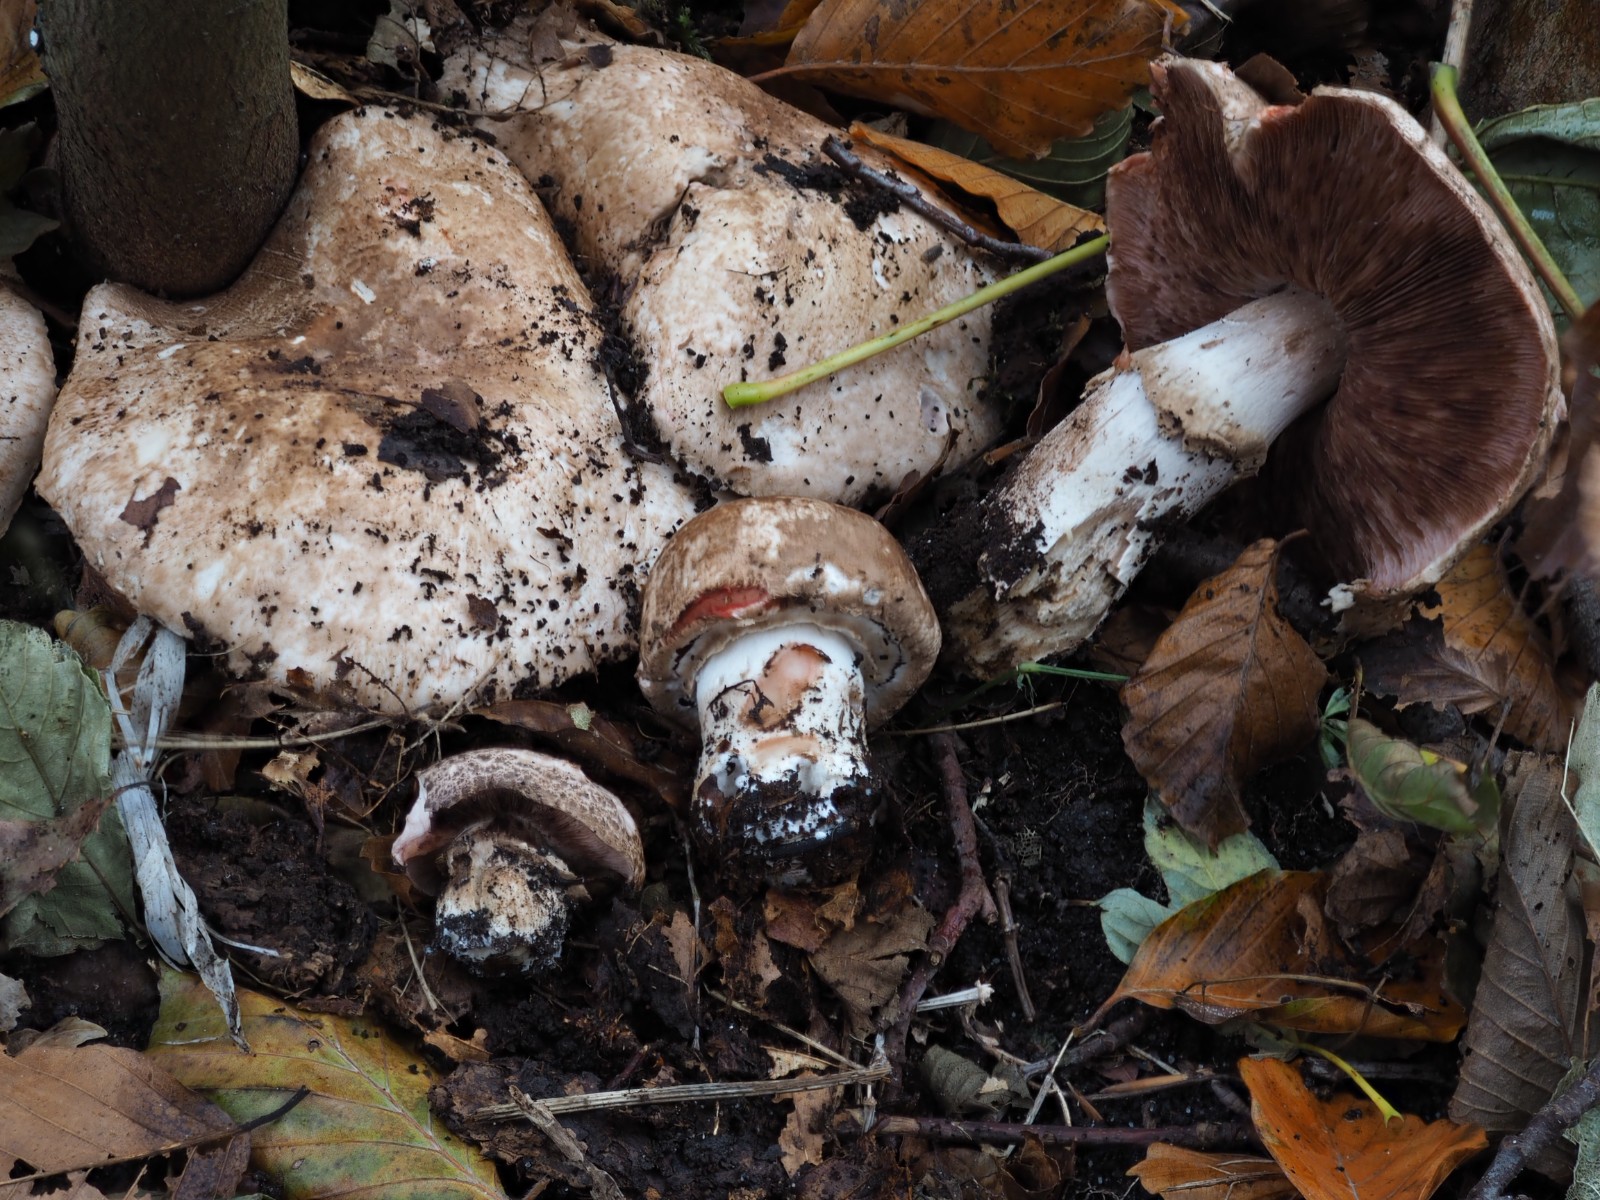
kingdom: Fungi
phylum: Basidiomycota
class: Agaricomycetes
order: Agaricales
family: Agaricaceae
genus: Agaricus
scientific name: Agaricus
